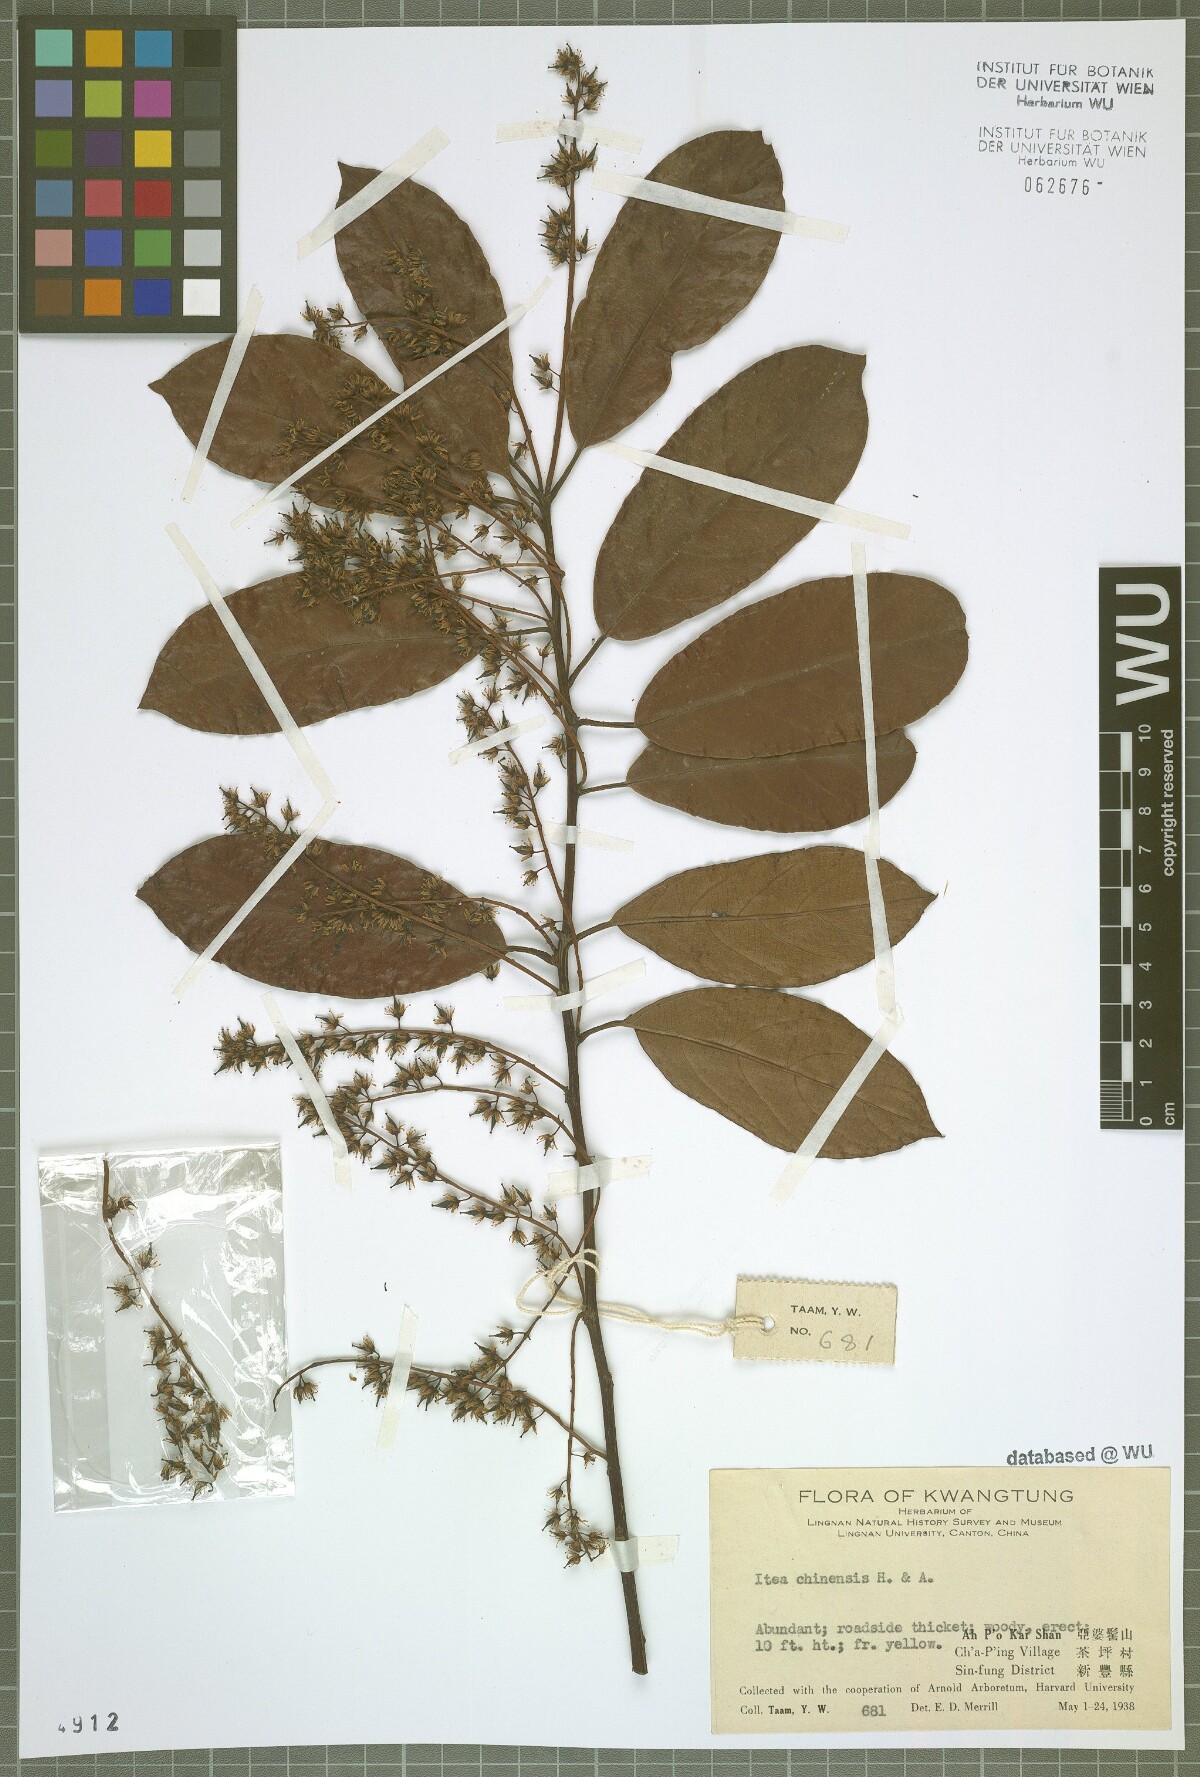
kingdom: Plantae
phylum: Tracheophyta
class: Magnoliopsida
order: Saxifragales
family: Iteaceae
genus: Itea
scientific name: Itea chinensis
